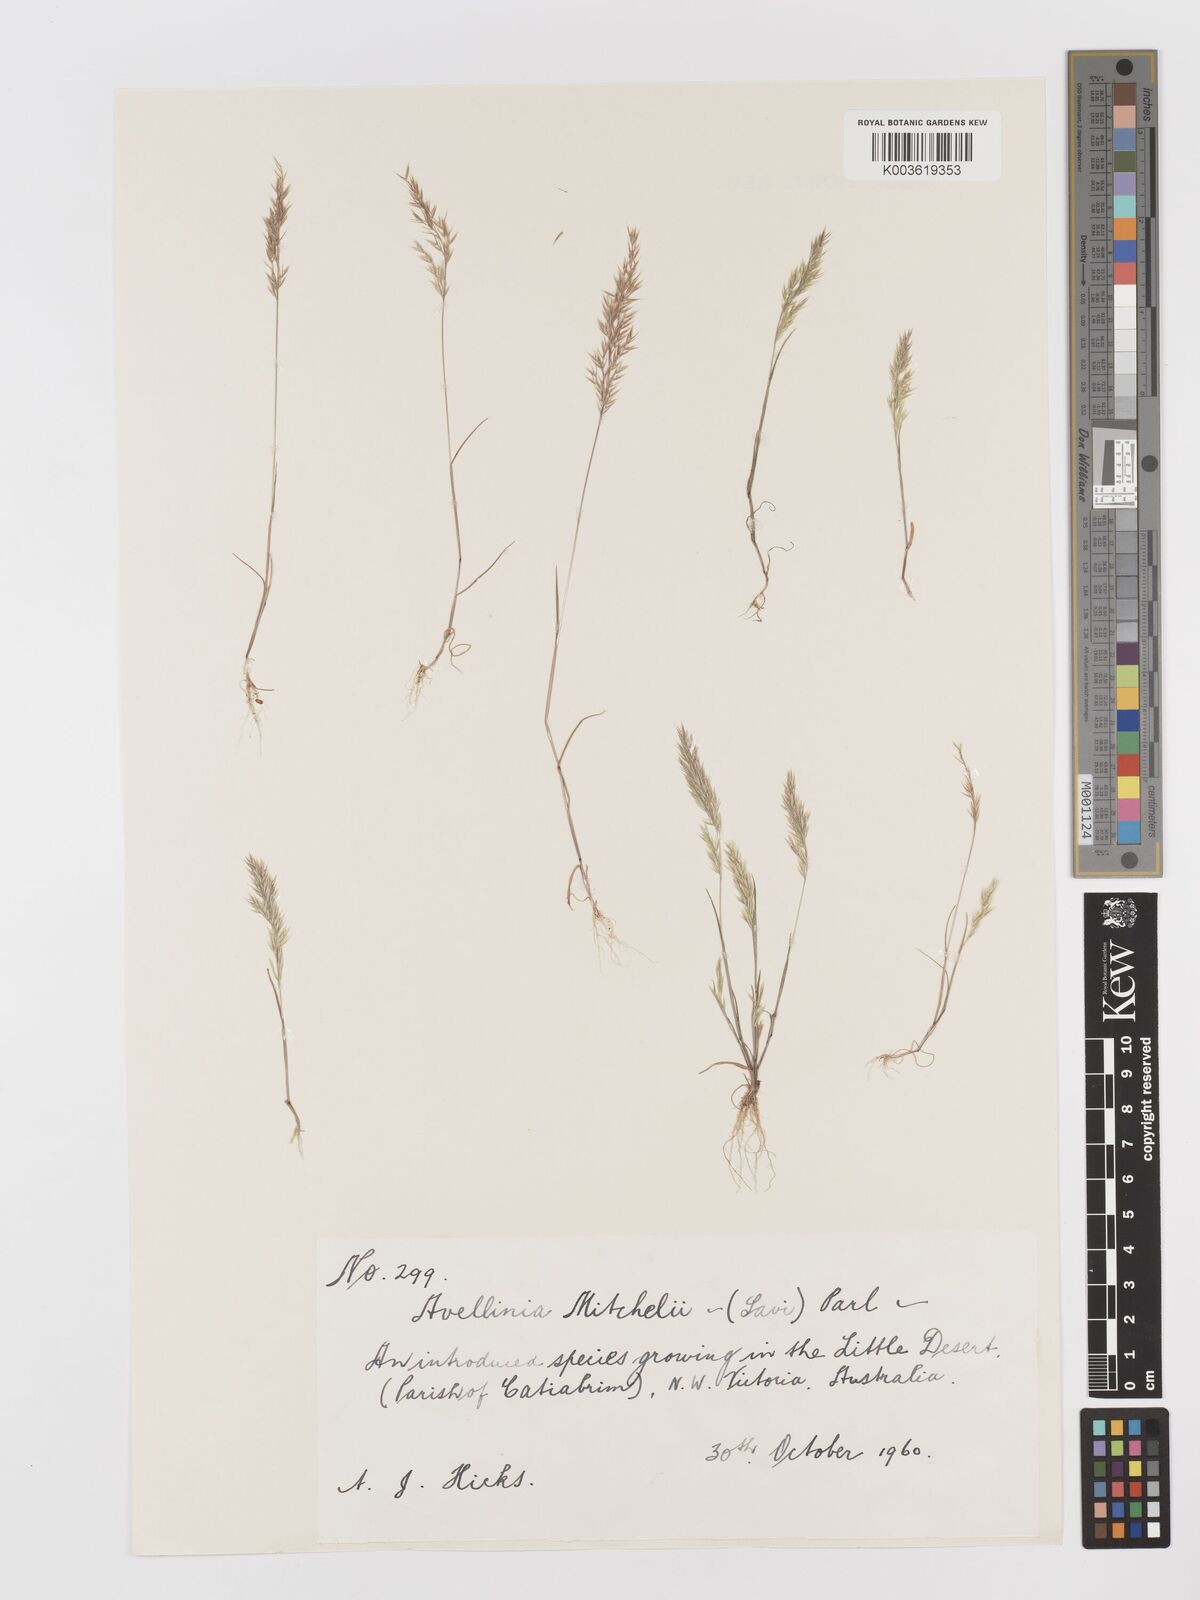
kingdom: Plantae
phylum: Tracheophyta
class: Liliopsida
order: Poales
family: Poaceae
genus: Rostraria
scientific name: Rostraria
